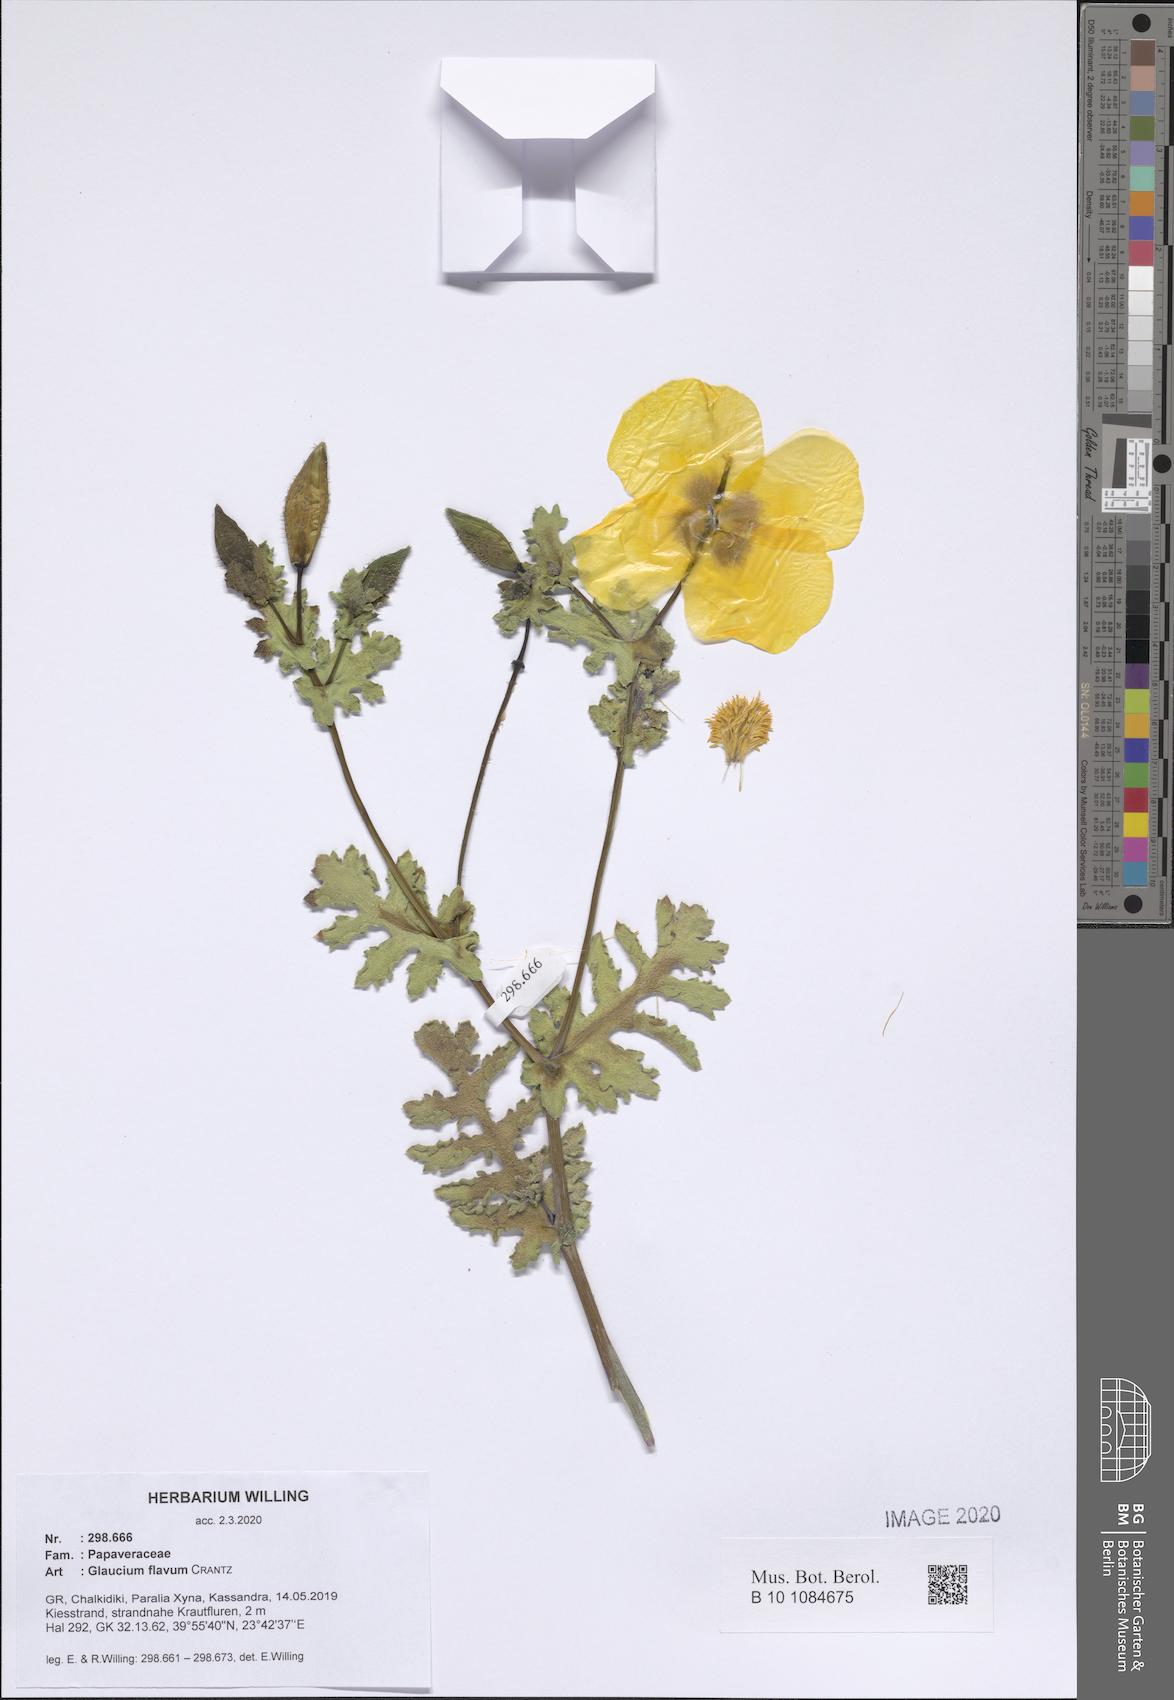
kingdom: Plantae
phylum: Tracheophyta
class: Magnoliopsida
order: Ranunculales
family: Papaveraceae
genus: Glaucium
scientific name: Glaucium flavum
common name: Yellow horned-poppy
